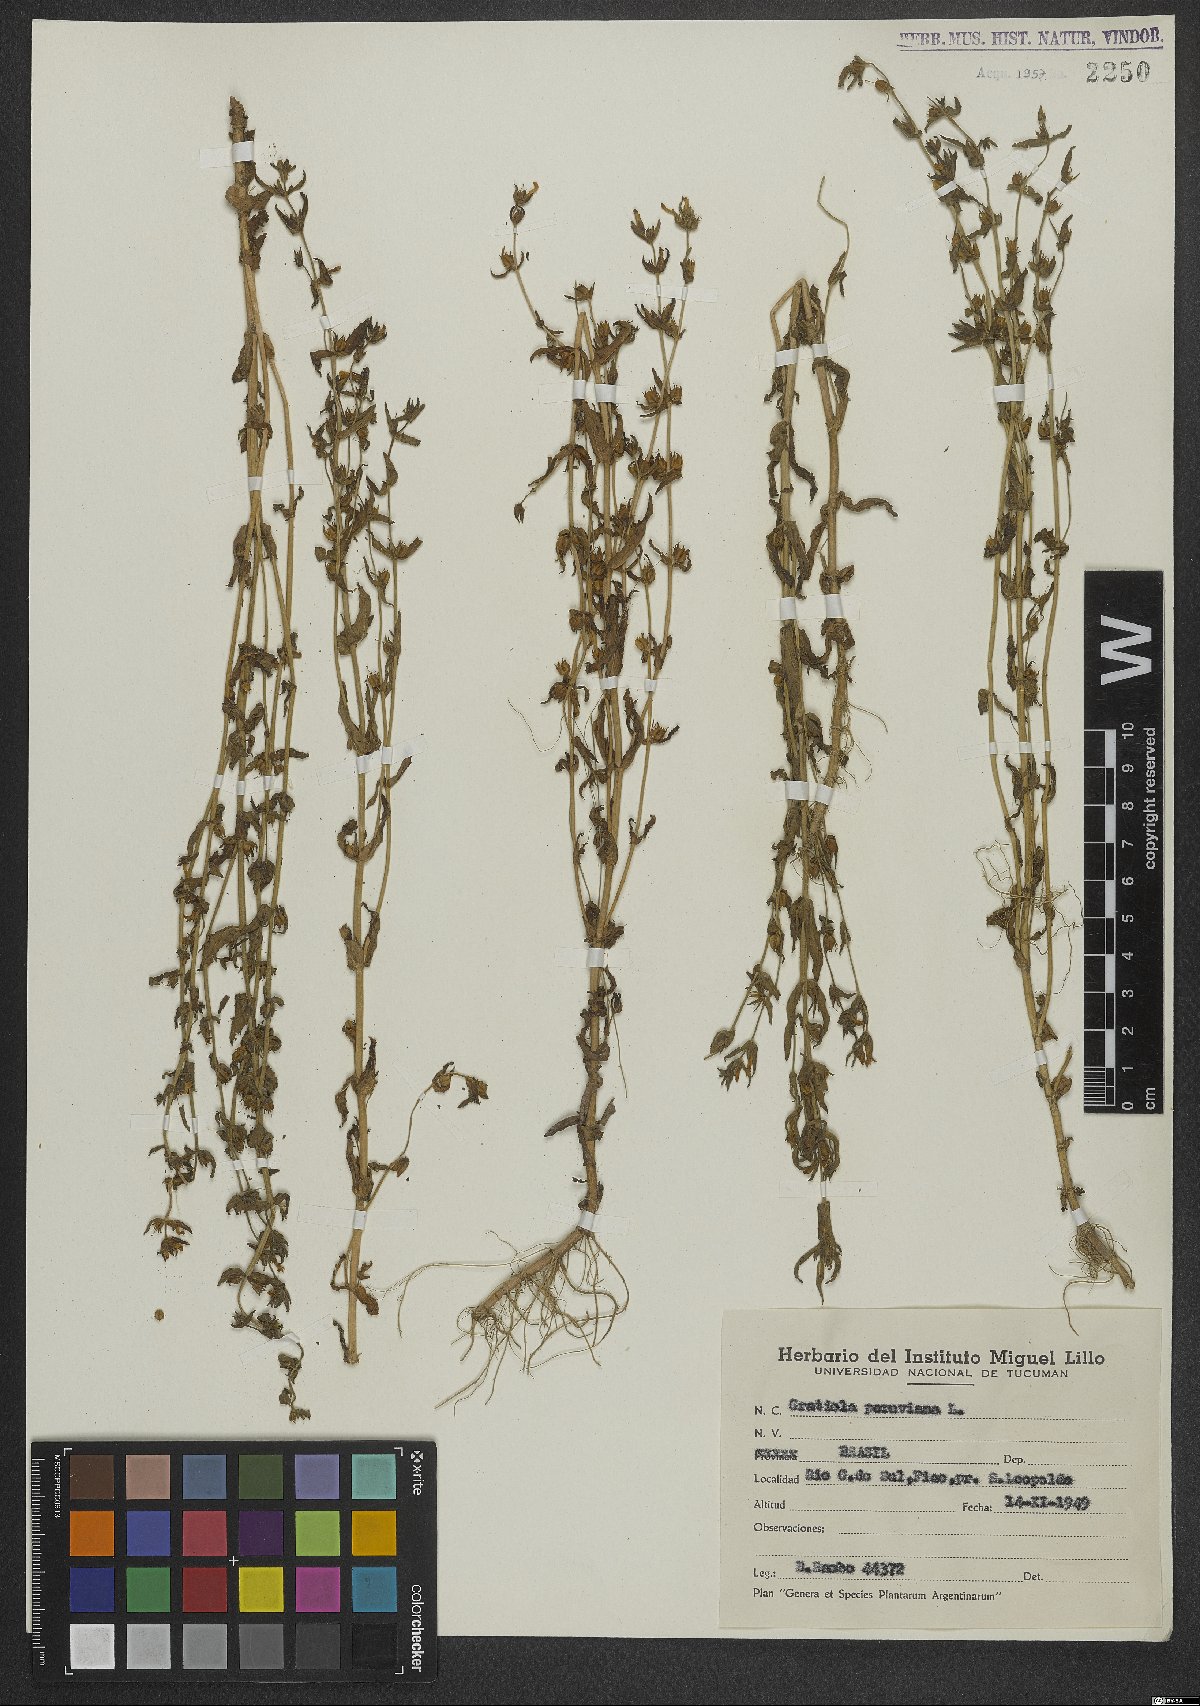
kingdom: Plantae
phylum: Tracheophyta
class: Magnoliopsida
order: Lamiales
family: Plantaginaceae
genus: Gratiola
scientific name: Gratiola peruviana
